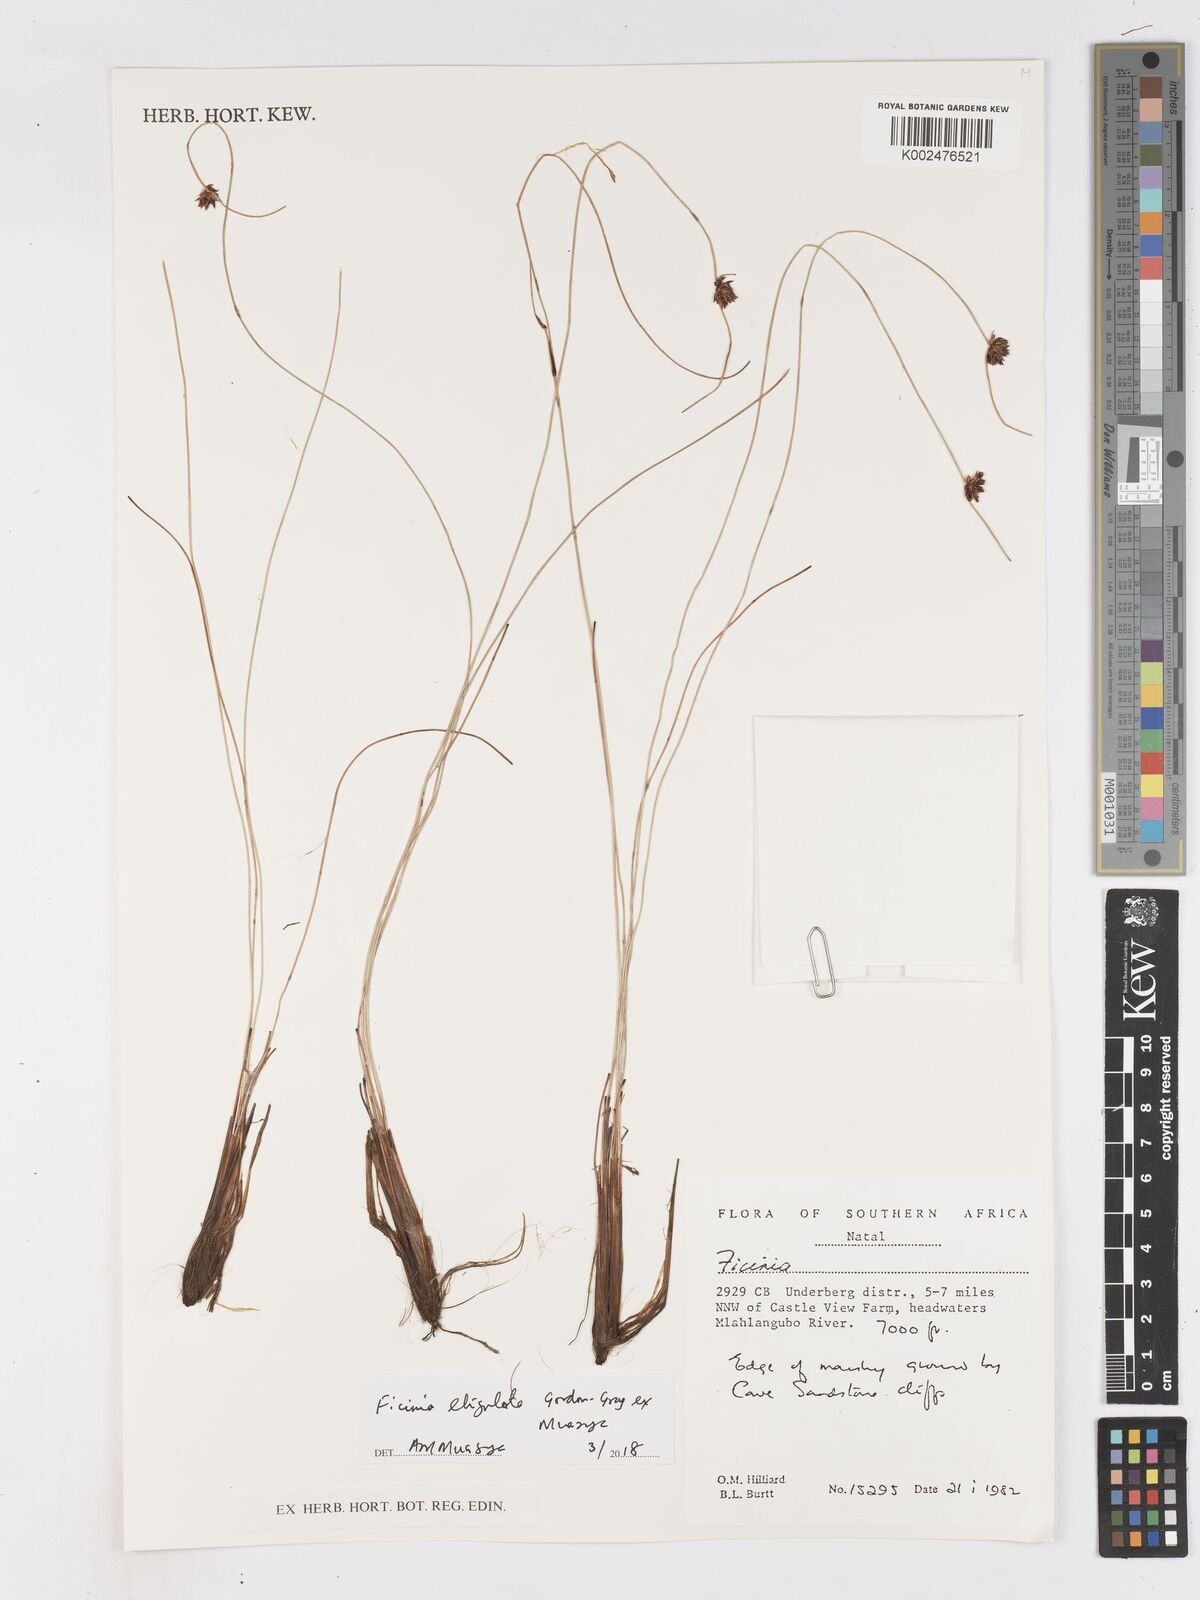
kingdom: Plantae
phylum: Tracheophyta
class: Liliopsida
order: Poales
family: Cyperaceae
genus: Ficinia
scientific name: Ficinia acuminata
